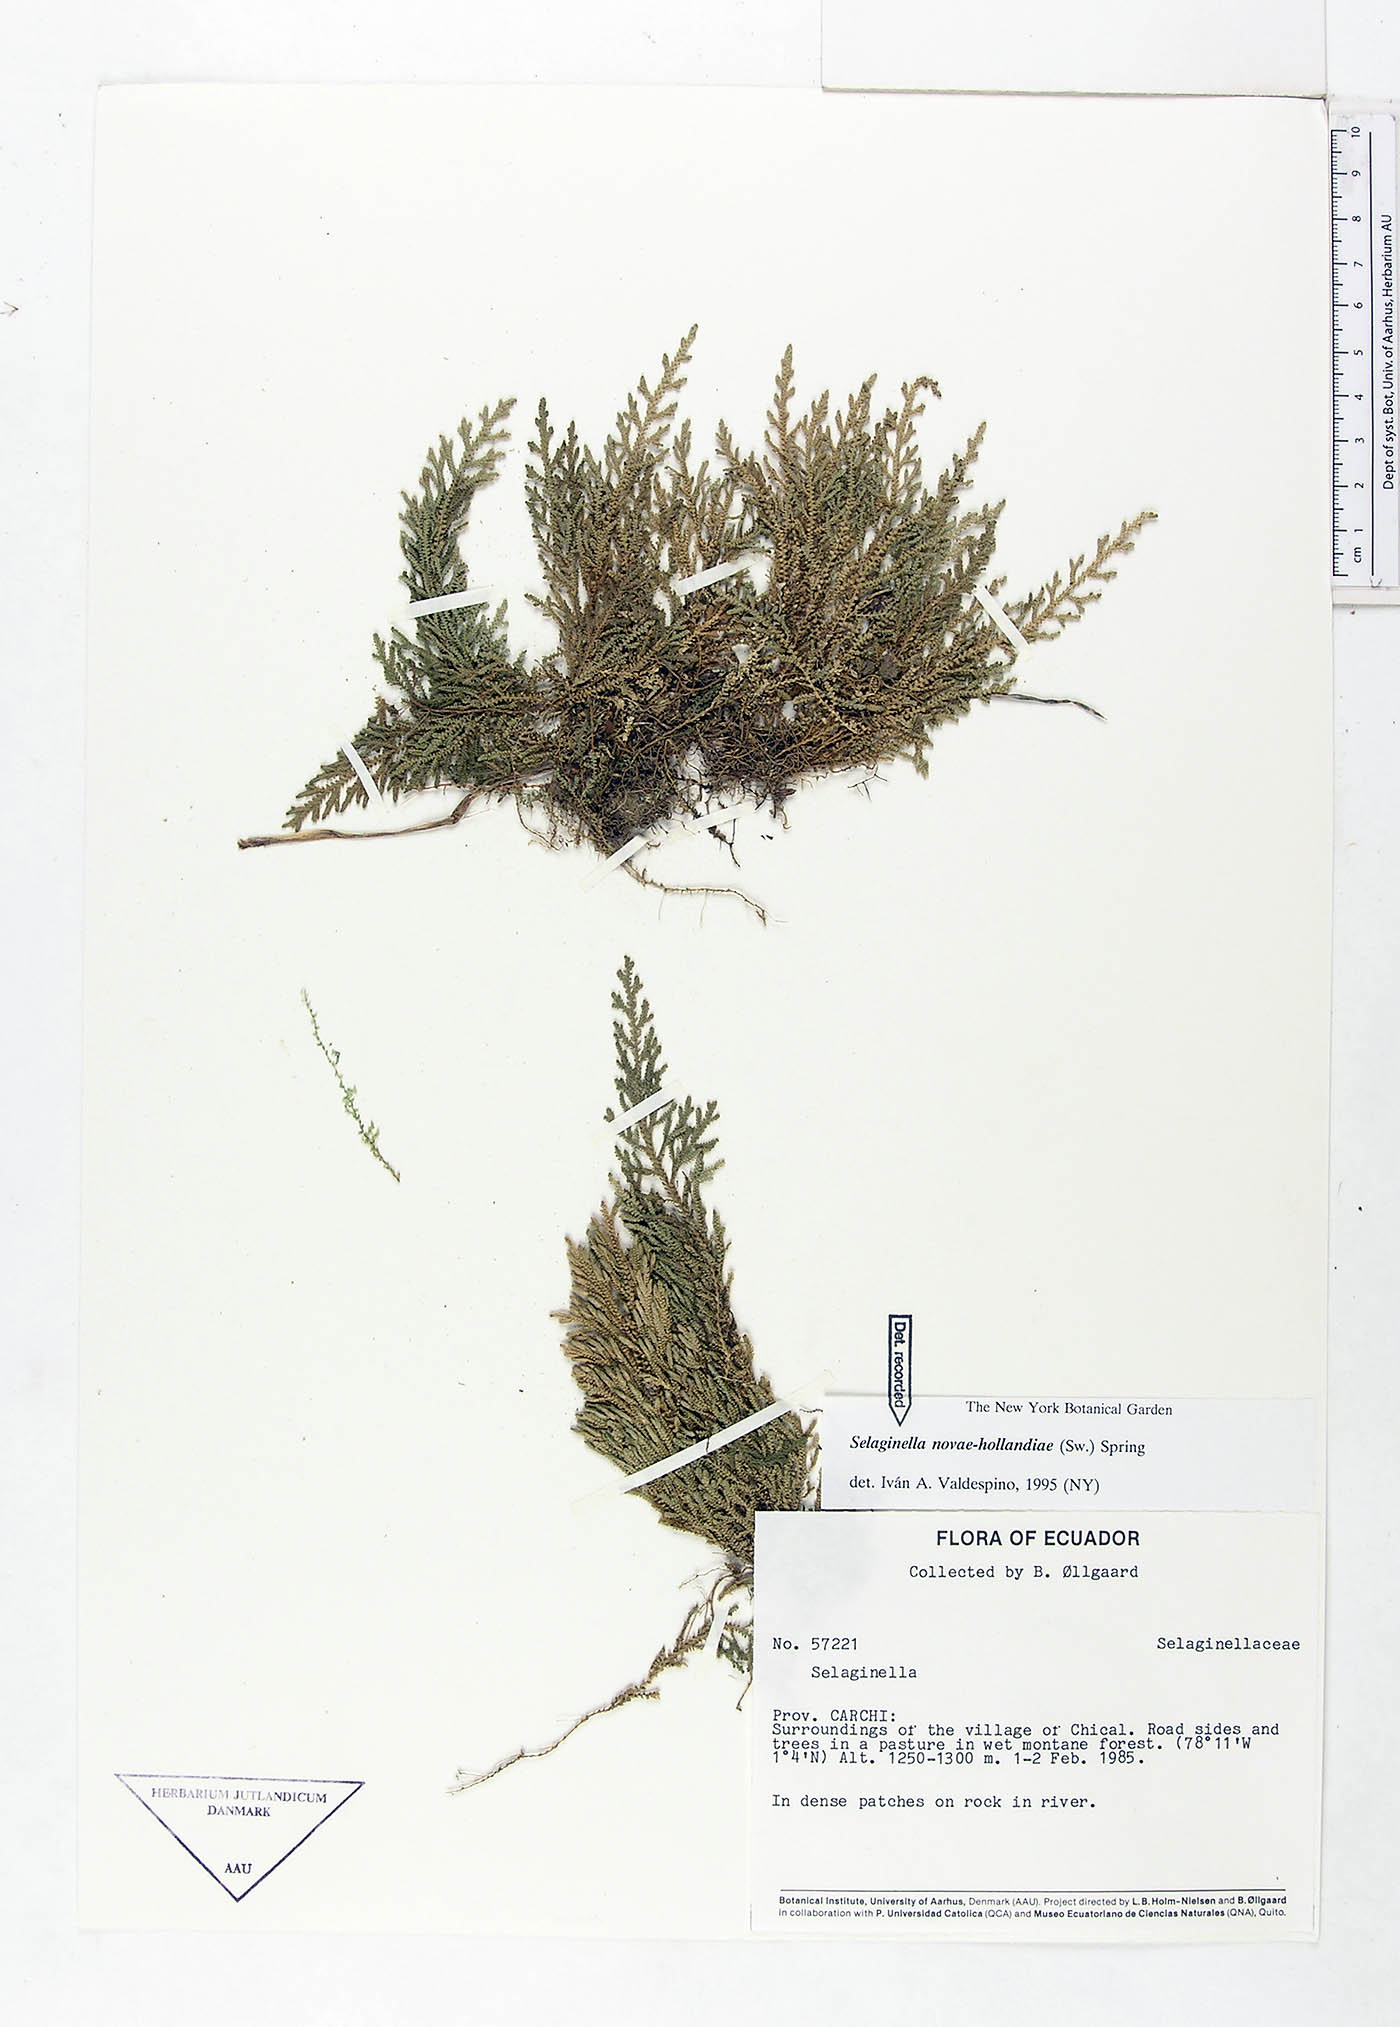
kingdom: Plantae
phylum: Tracheophyta
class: Lycopodiopsida
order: Selaginellales
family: Selaginellaceae
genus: Selaginella
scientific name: Selaginella novae-hollandiae
